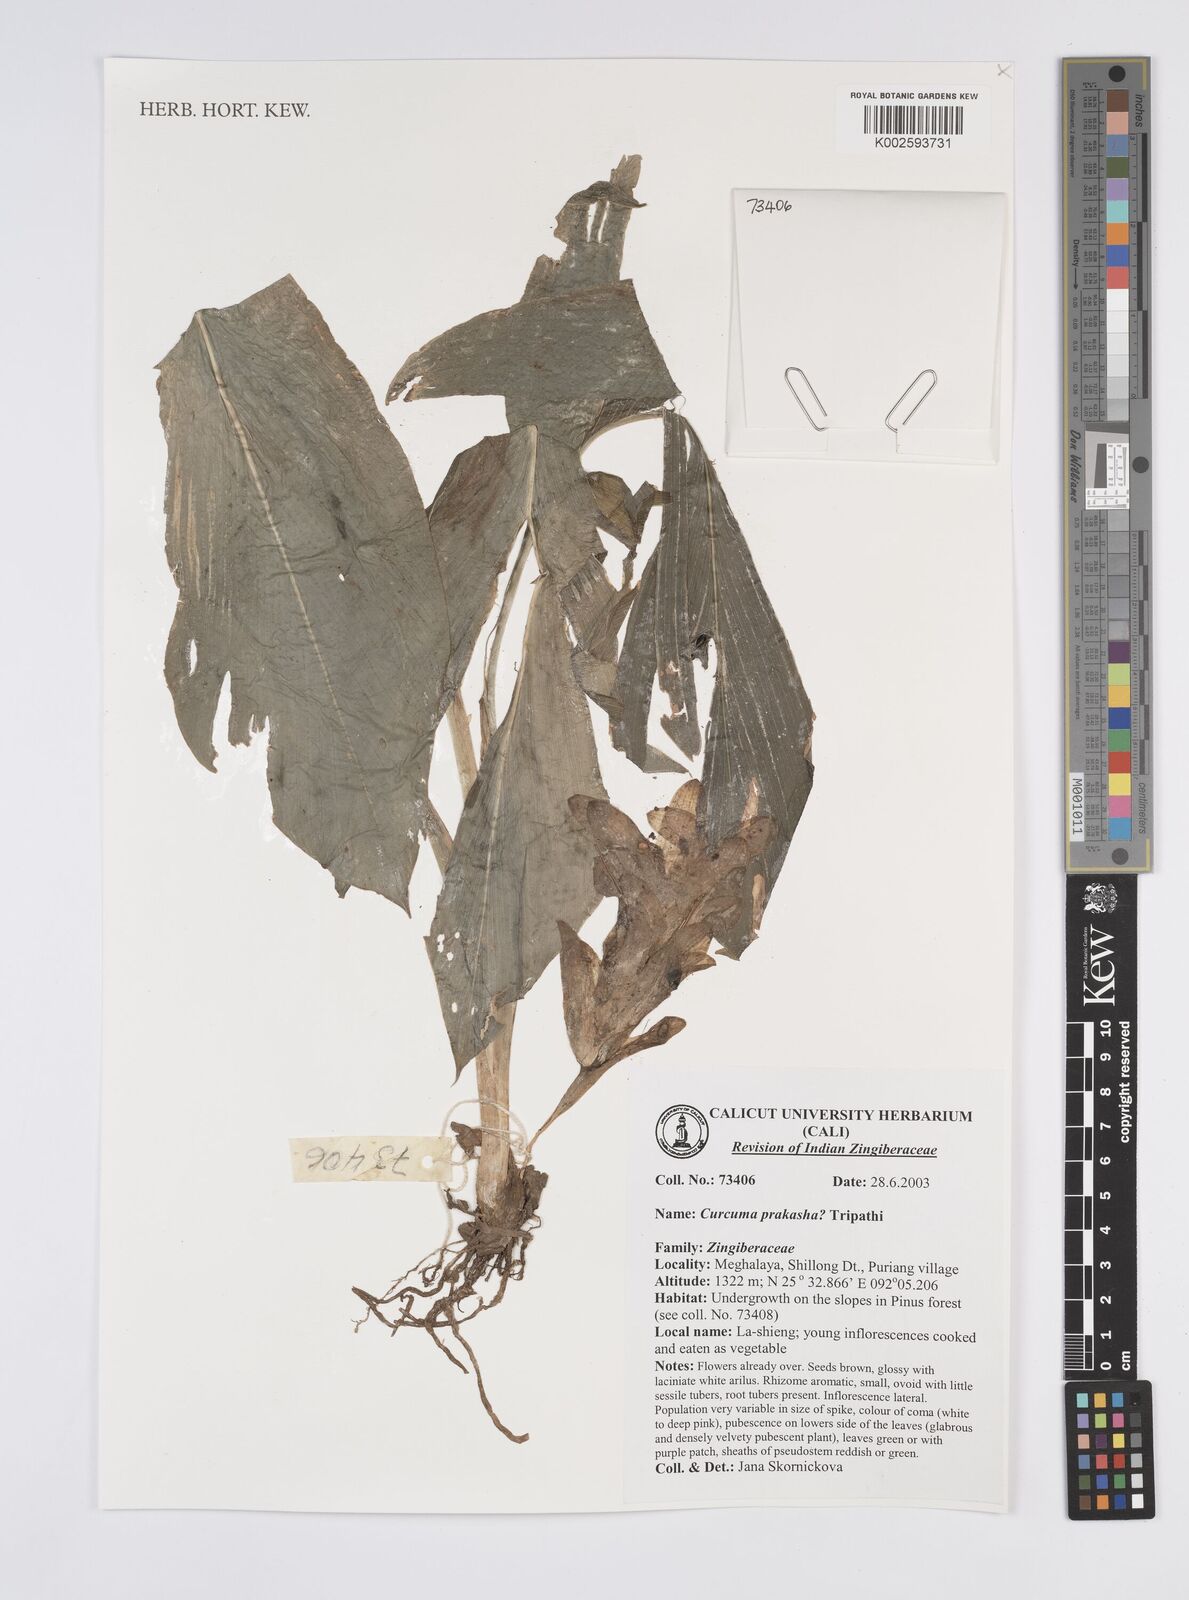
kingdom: Plantae
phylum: Tracheophyta
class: Liliopsida
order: Zingiberales
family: Zingiberaceae
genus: Curcuma
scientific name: Curcuma prakasha
